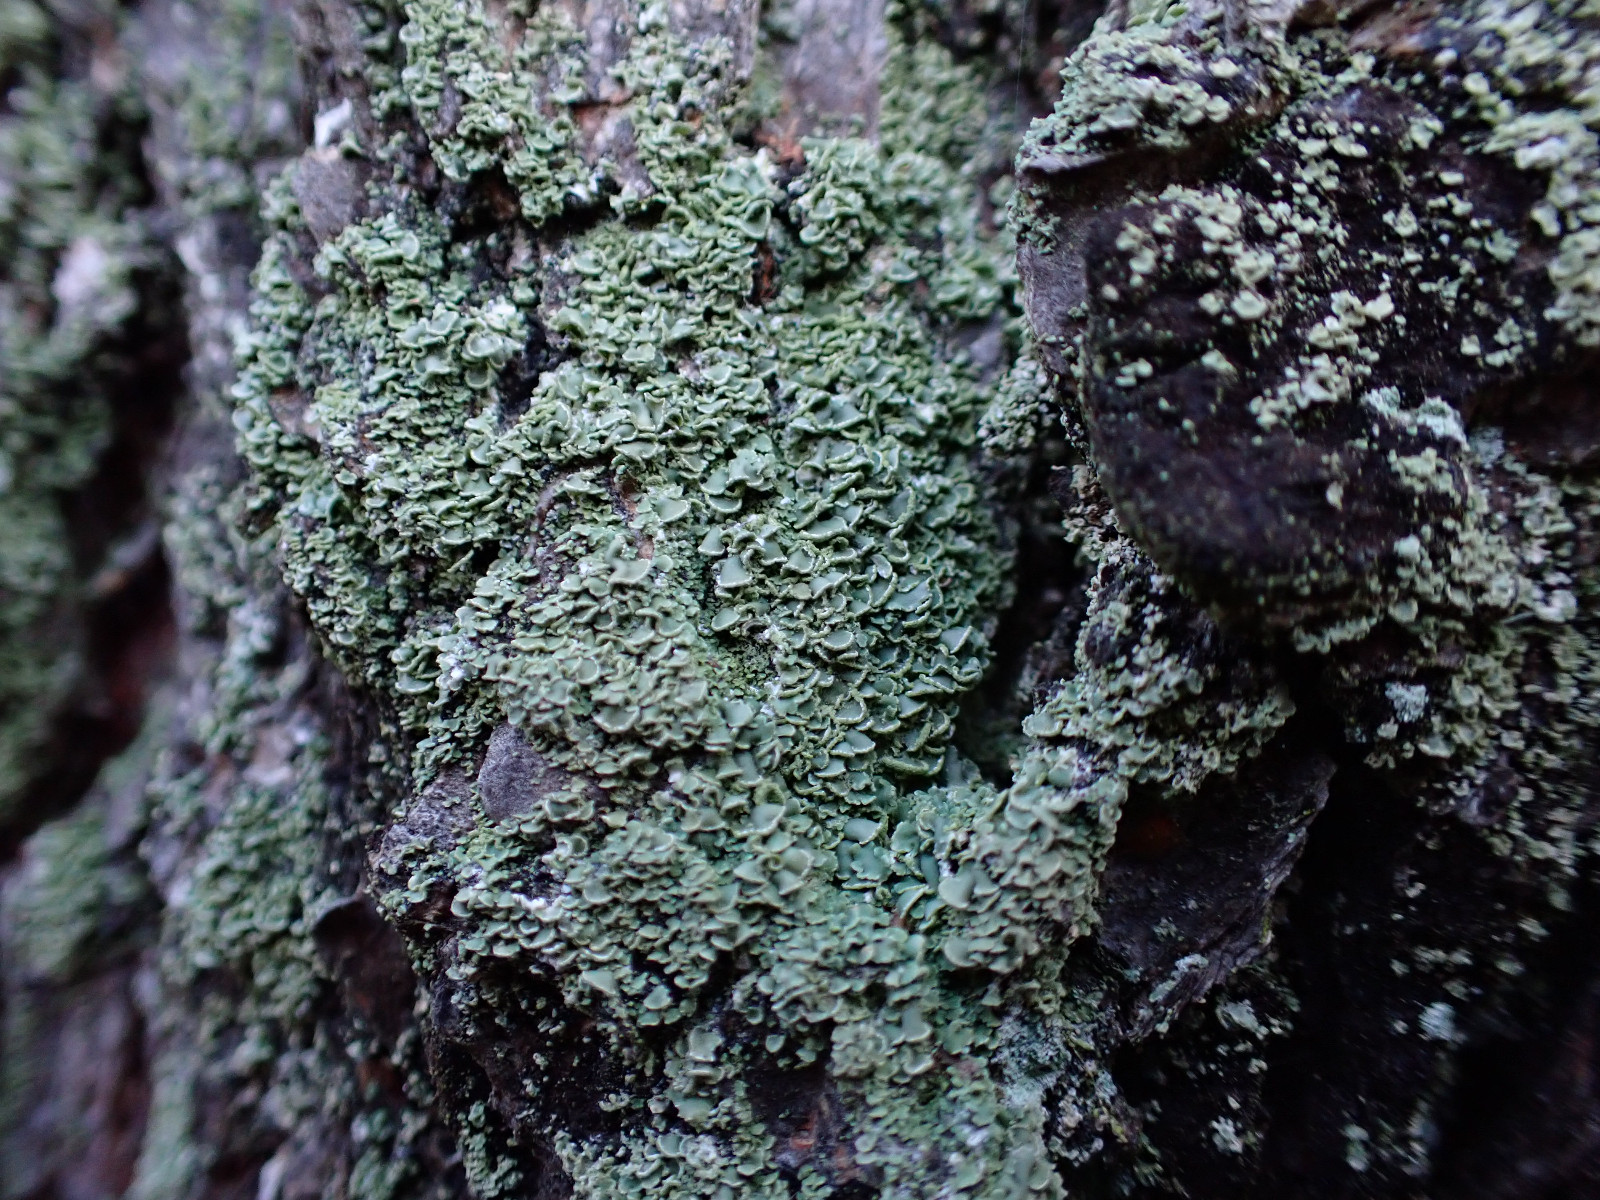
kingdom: Fungi
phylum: Ascomycota
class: Lecanoromycetes
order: Umbilicariales
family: Ophioparmaceae
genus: Hypocenomyce
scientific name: Hypocenomyce scalaris
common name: småskællet muslinglav
